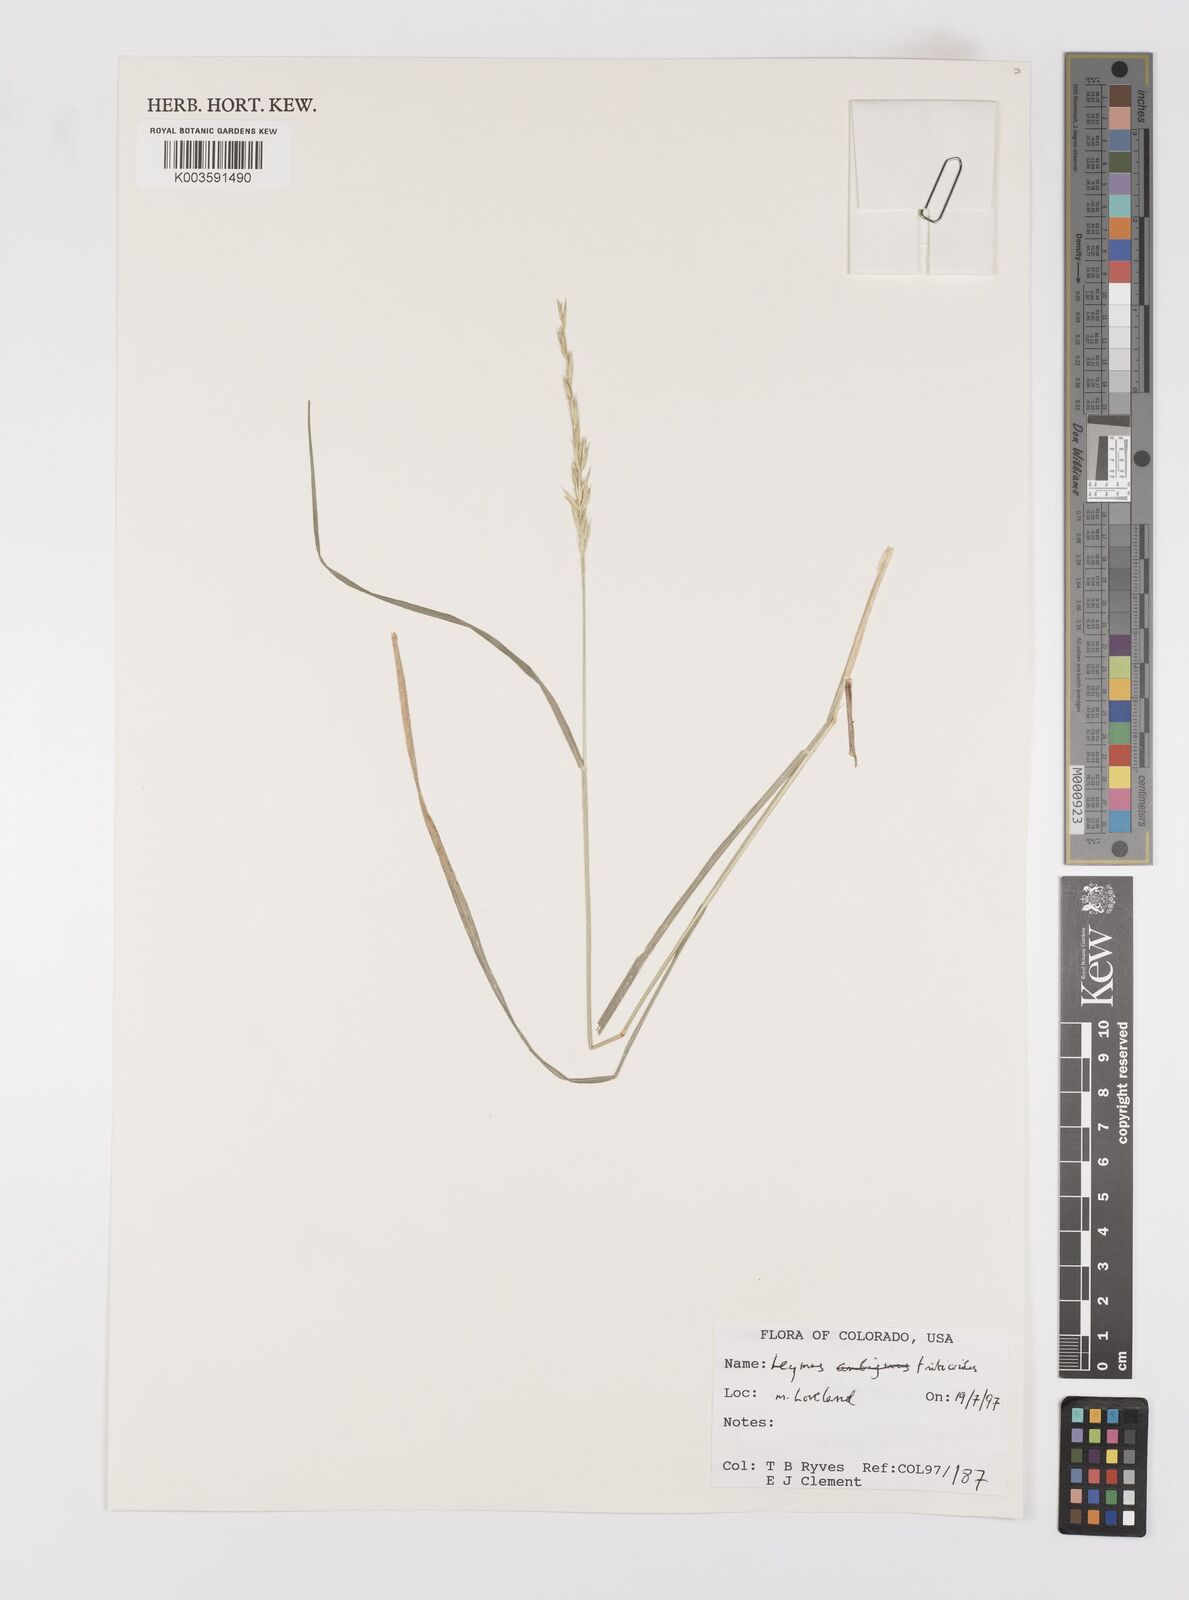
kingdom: Plantae
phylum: Tracheophyta
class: Liliopsida
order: Poales
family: Poaceae
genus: Leymus
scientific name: Leymus triticoides
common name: Beardless wild rye
